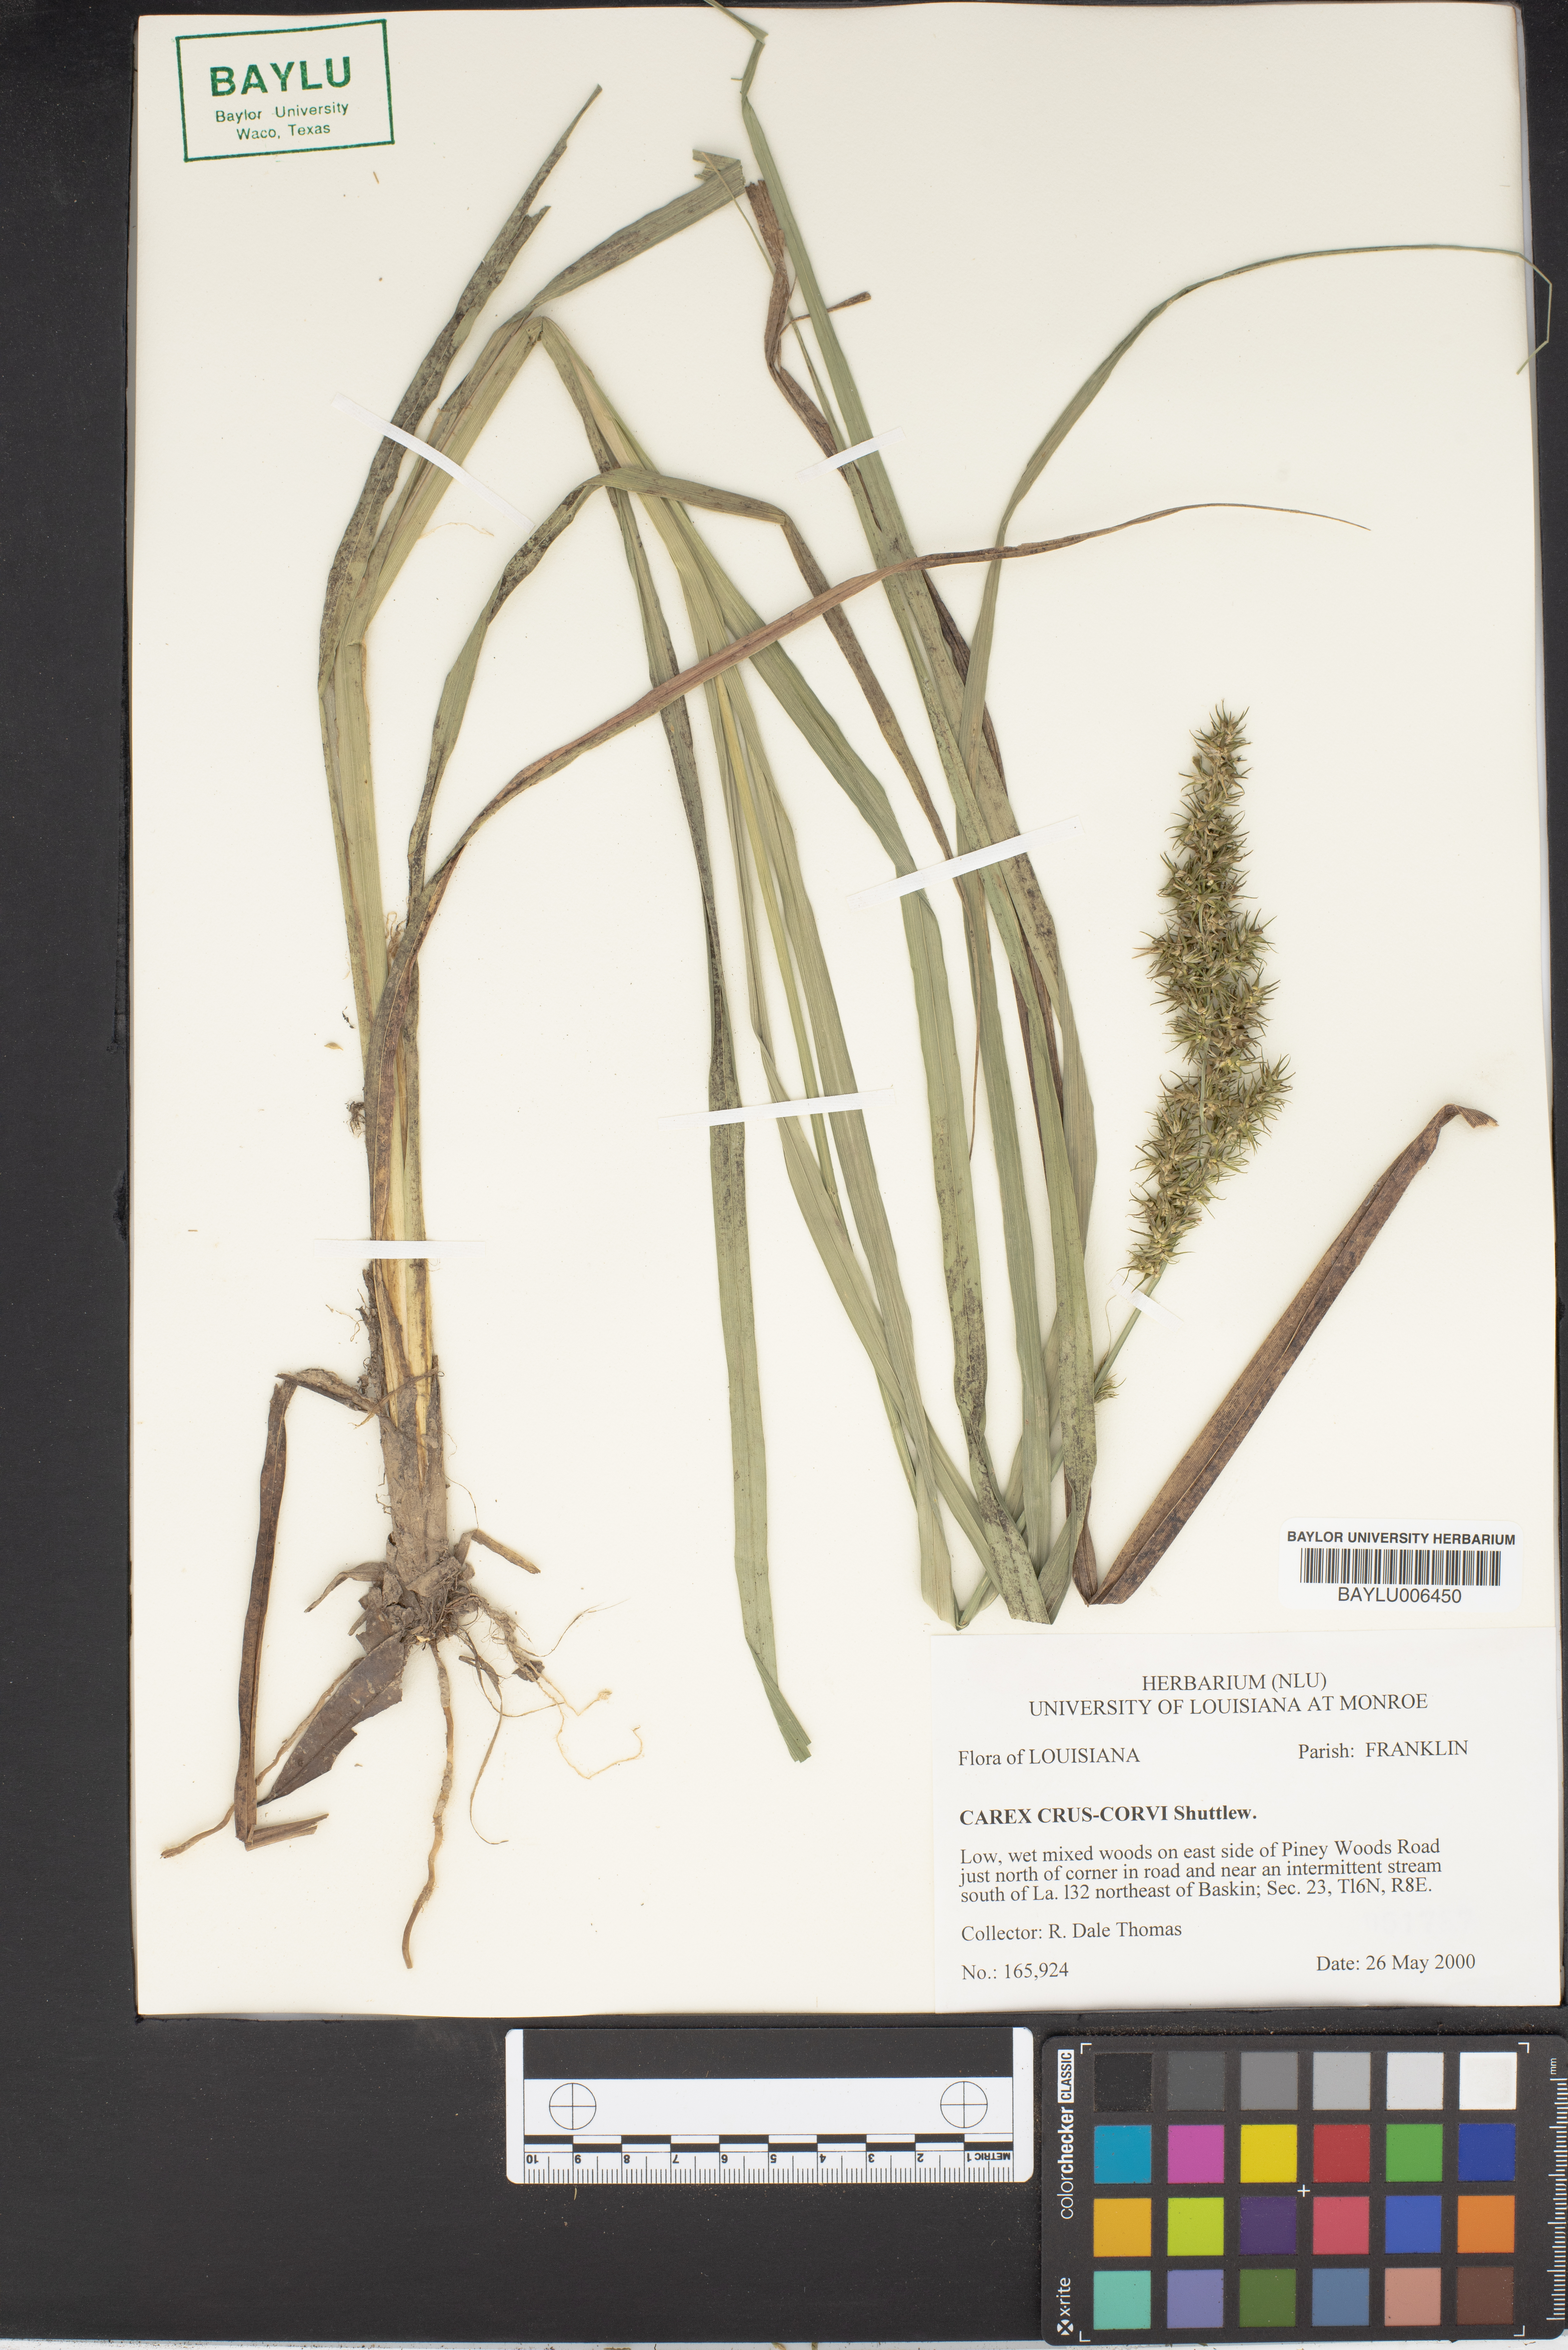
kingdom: Plantae
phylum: Tracheophyta
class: Liliopsida
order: Poales
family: Cyperaceae
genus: Carex
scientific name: Carex crus-corvi
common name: Crow-spur sedge
